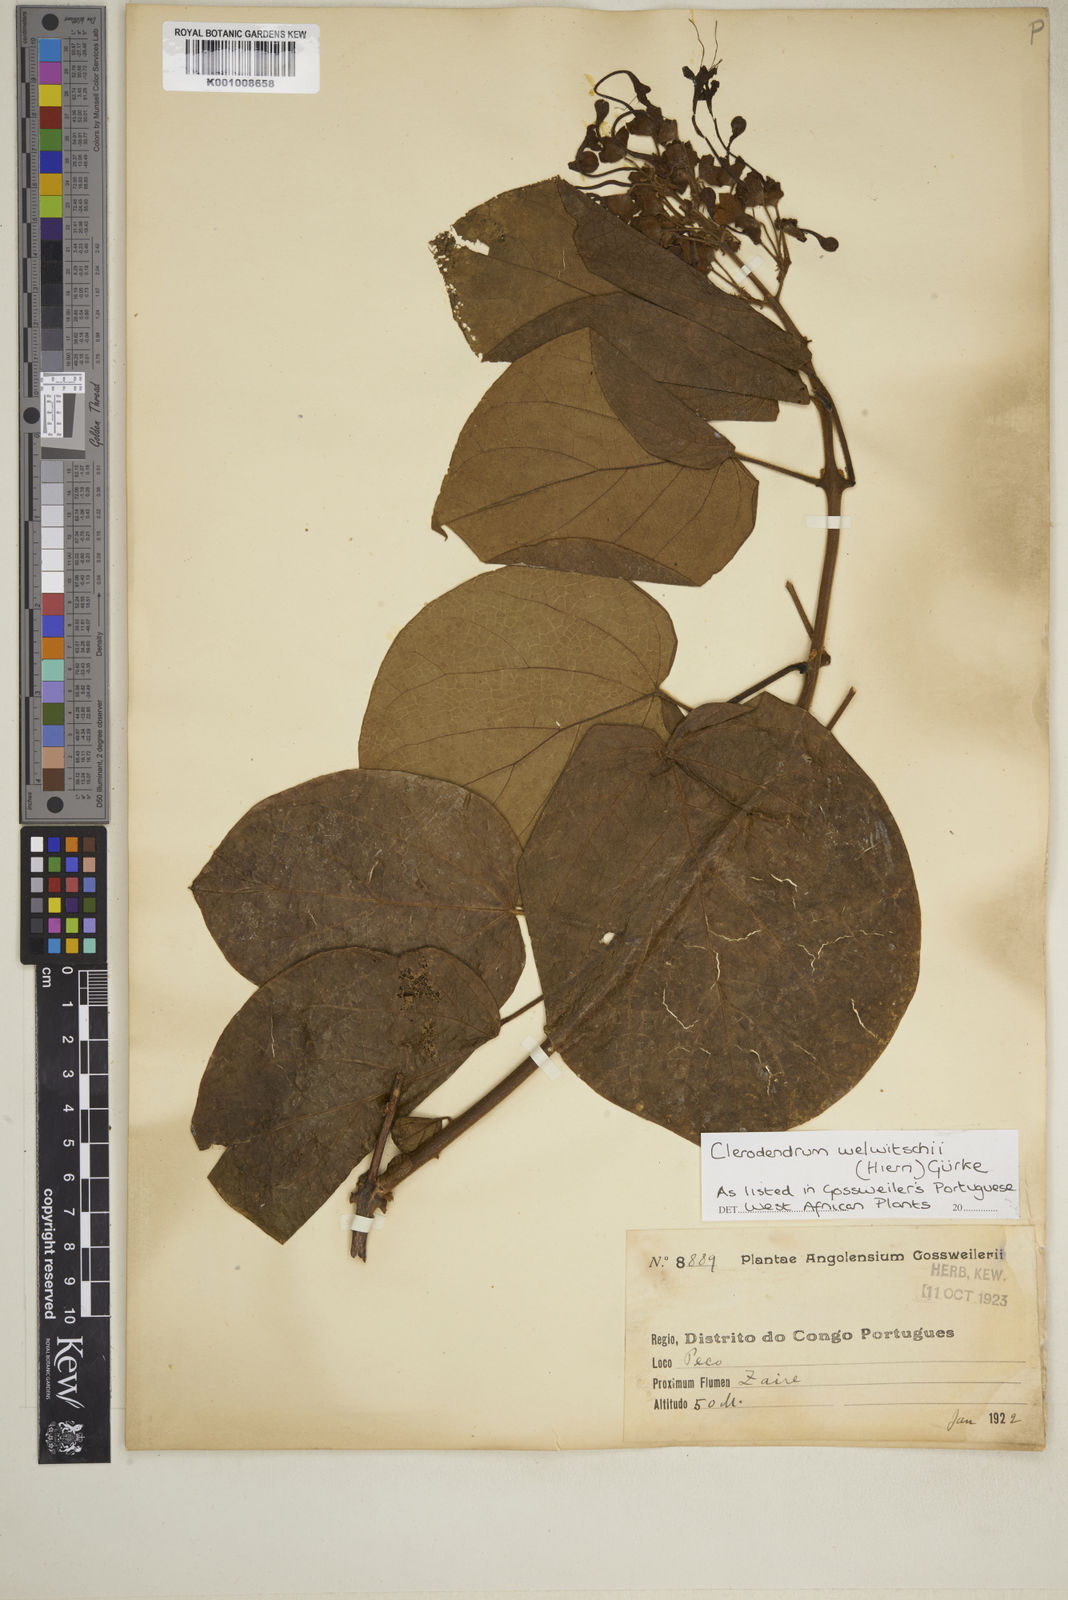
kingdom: Plantae
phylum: Tracheophyta
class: Magnoliopsida
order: Lamiales
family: Lamiaceae
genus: Clerodendrum
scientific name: Clerodendrum
